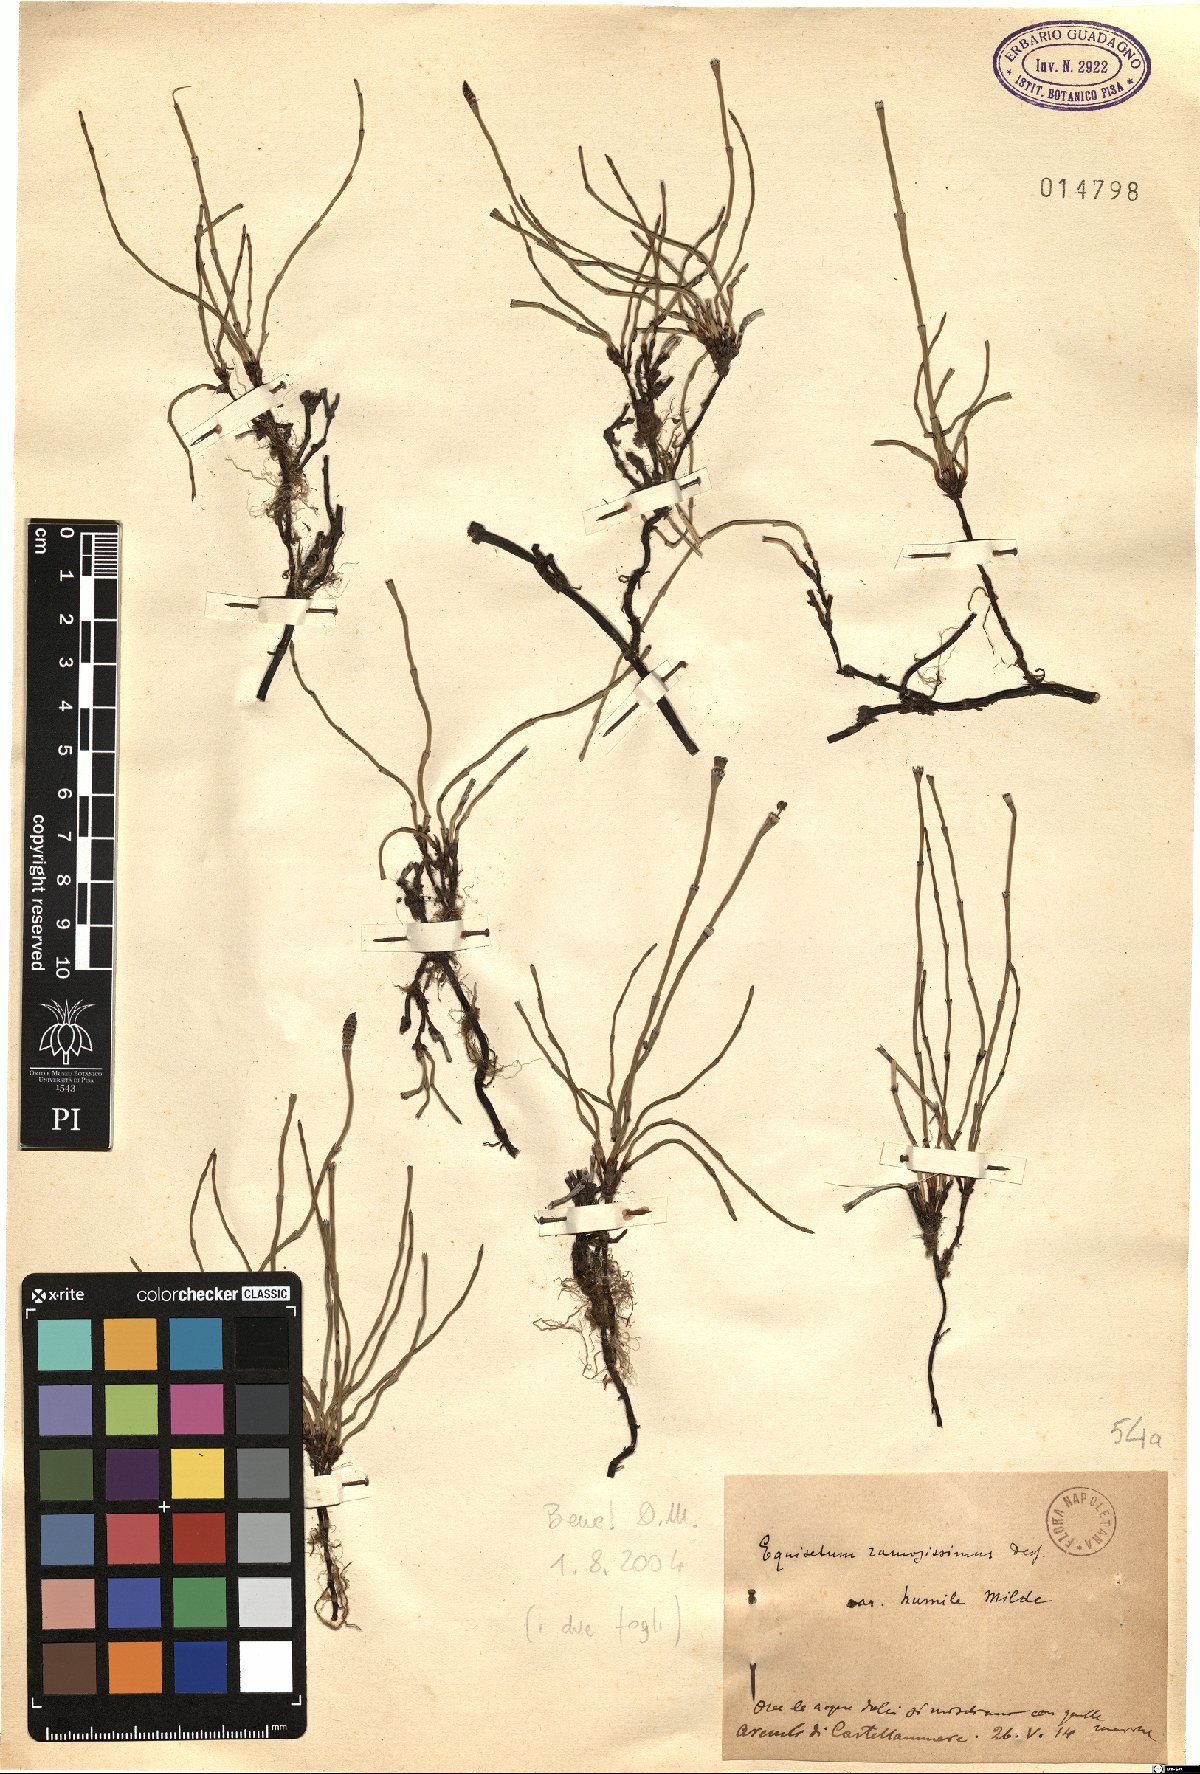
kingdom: Plantae
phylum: Tracheophyta
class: Polypodiopsida
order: Equisetales
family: Equisetaceae
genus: Equisetum
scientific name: Equisetum ramosissimum
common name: Branched horsetail
